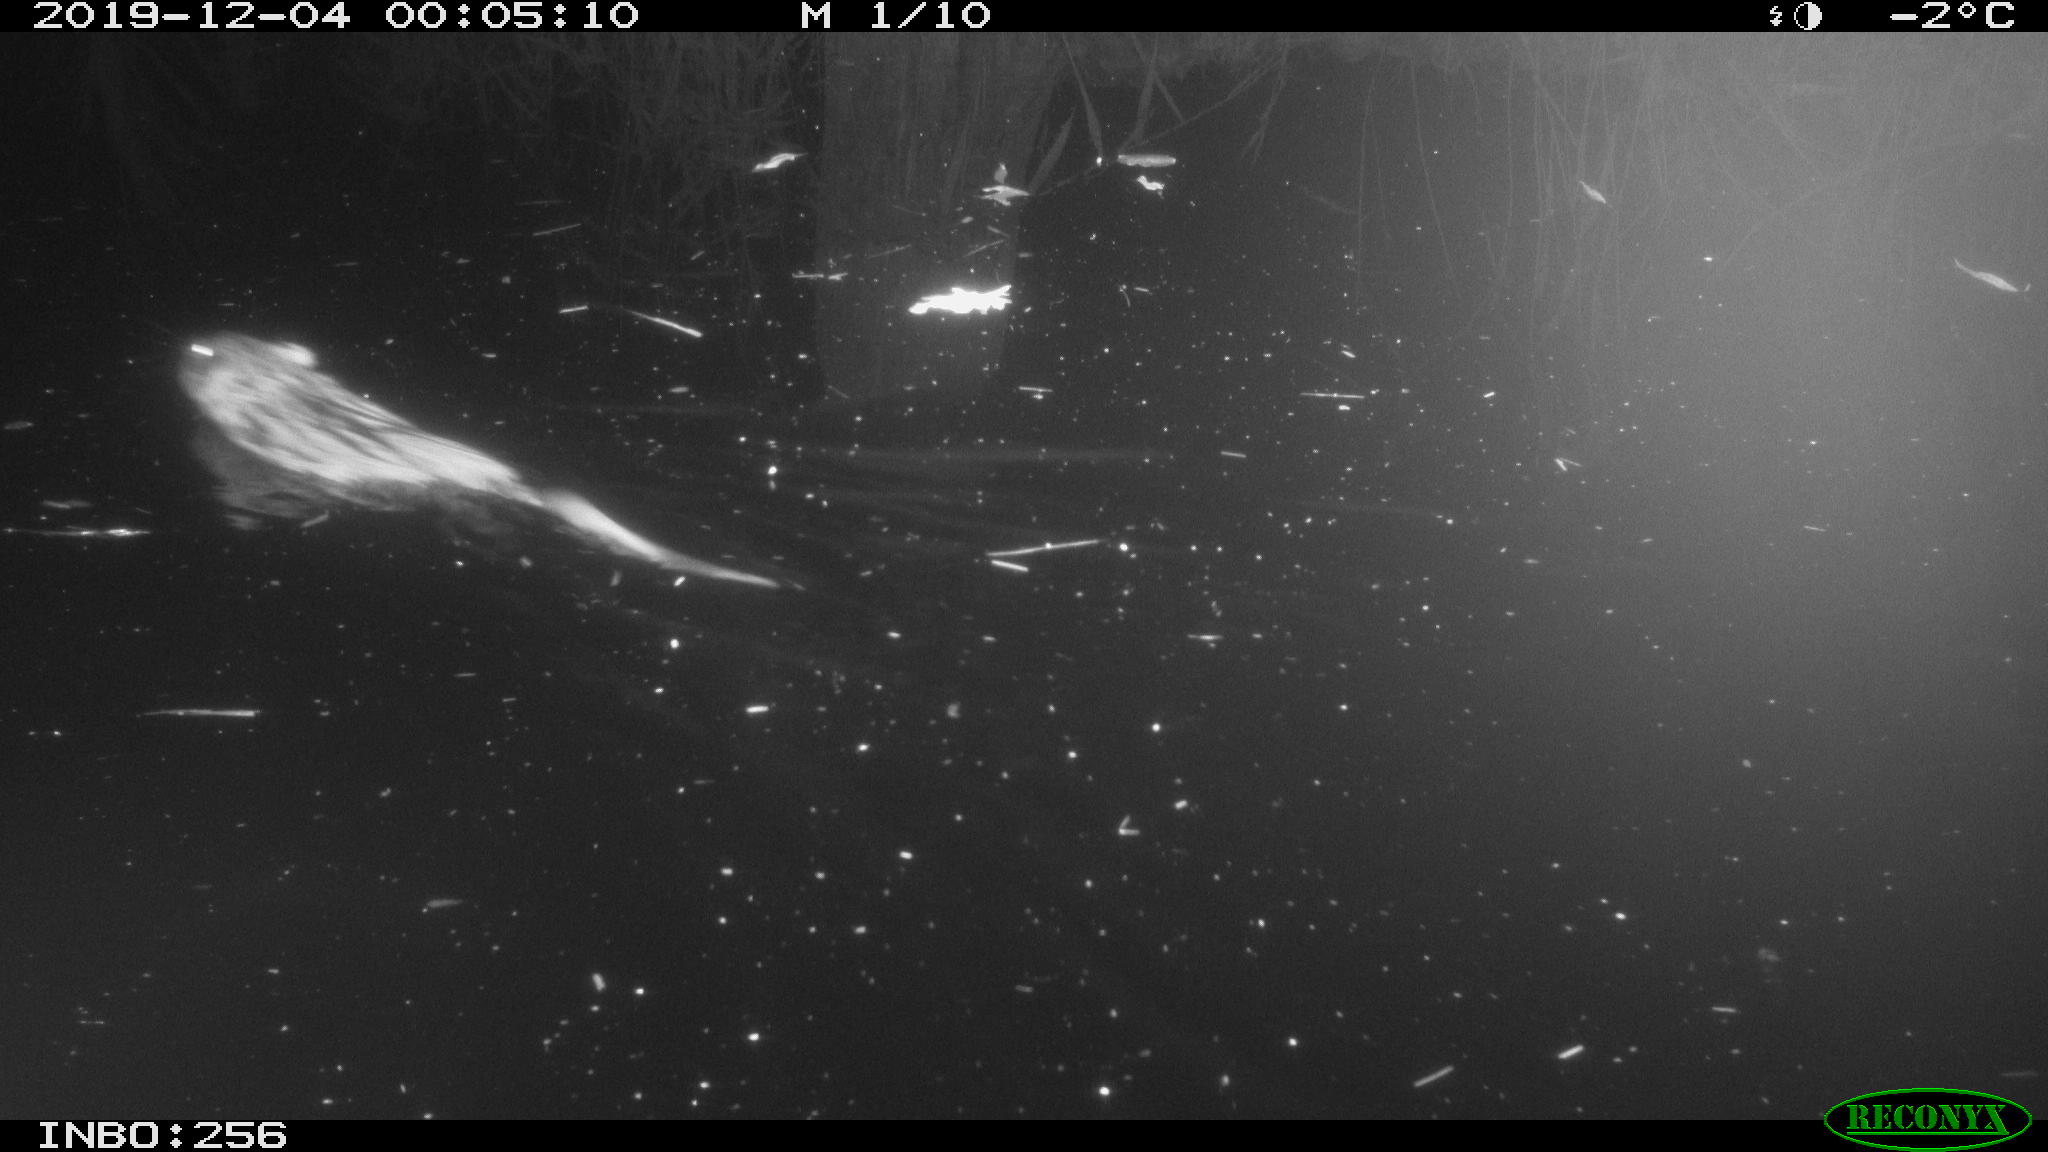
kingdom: Animalia
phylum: Chordata
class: Mammalia
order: Rodentia
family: Cricetidae
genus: Ondatra
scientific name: Ondatra zibethicus
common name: Muskrat
